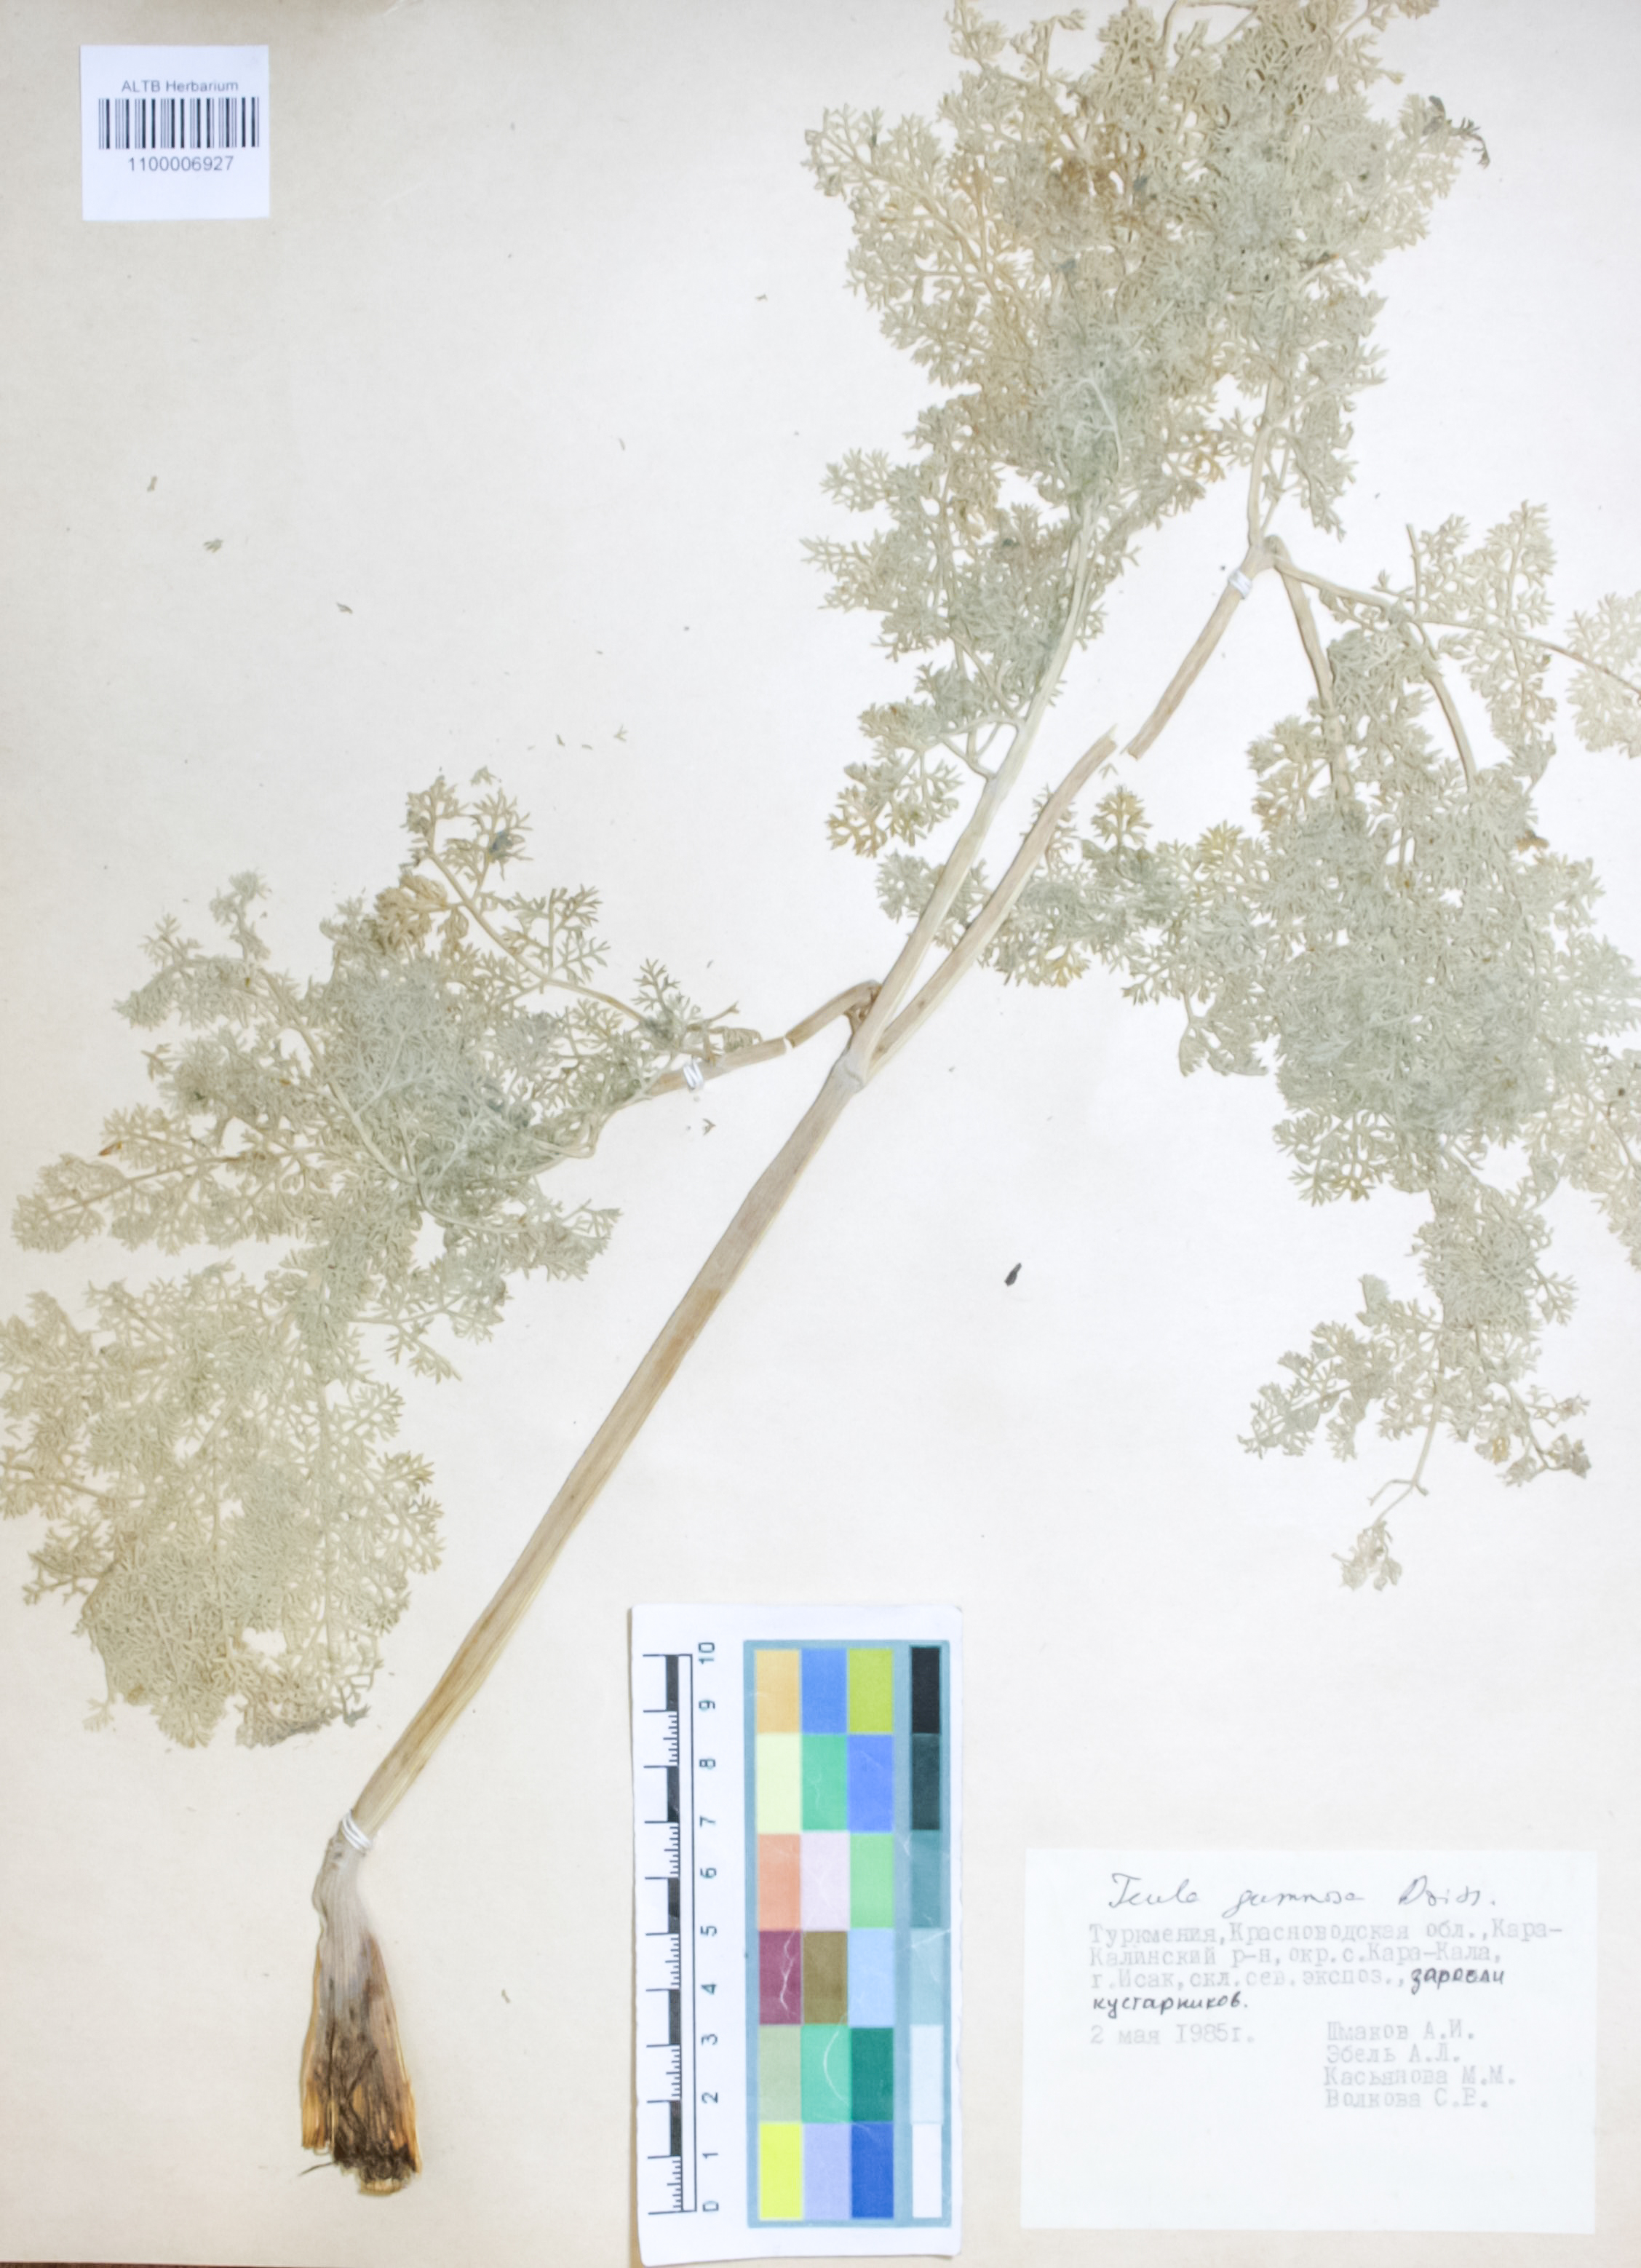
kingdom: Plantae
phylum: Tracheophyta
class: Magnoliopsida
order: Apiales
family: Apiaceae
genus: Ferula
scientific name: Ferula gummosa
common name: Galbanum
